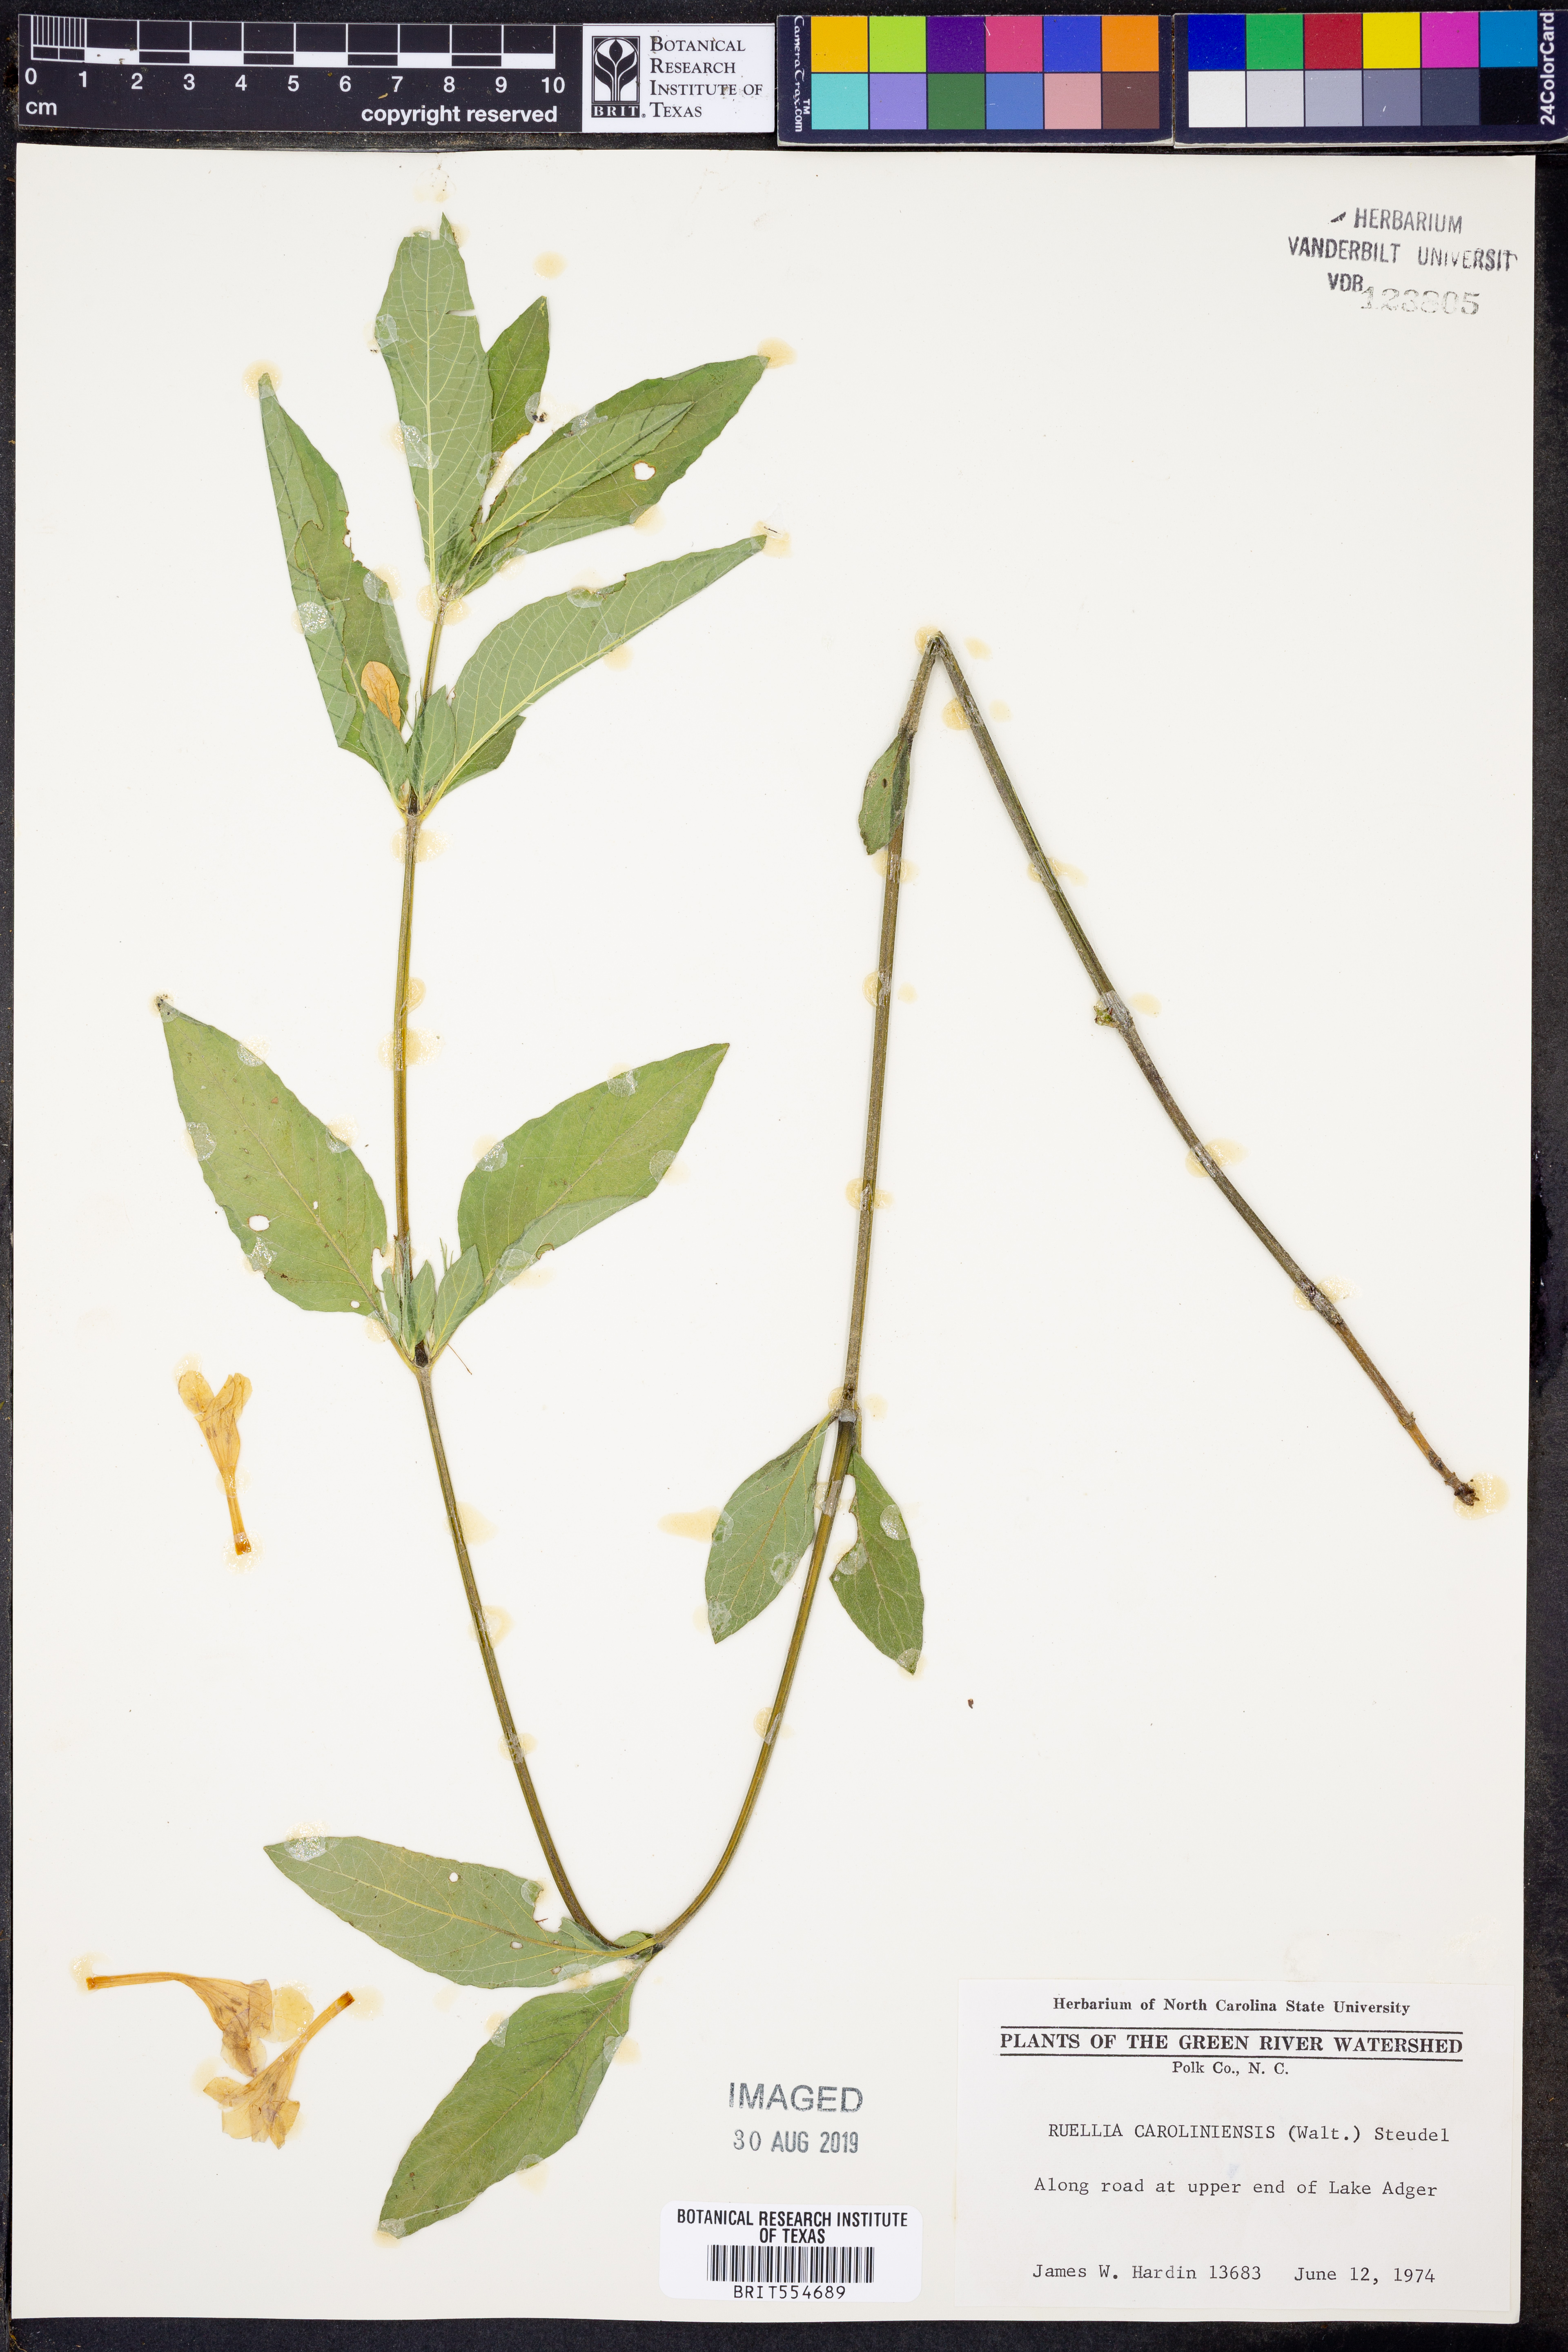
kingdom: Plantae
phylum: Tracheophyta
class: Magnoliopsida
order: Lamiales
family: Acanthaceae
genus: Ruellia
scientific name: Ruellia caroliniensis
